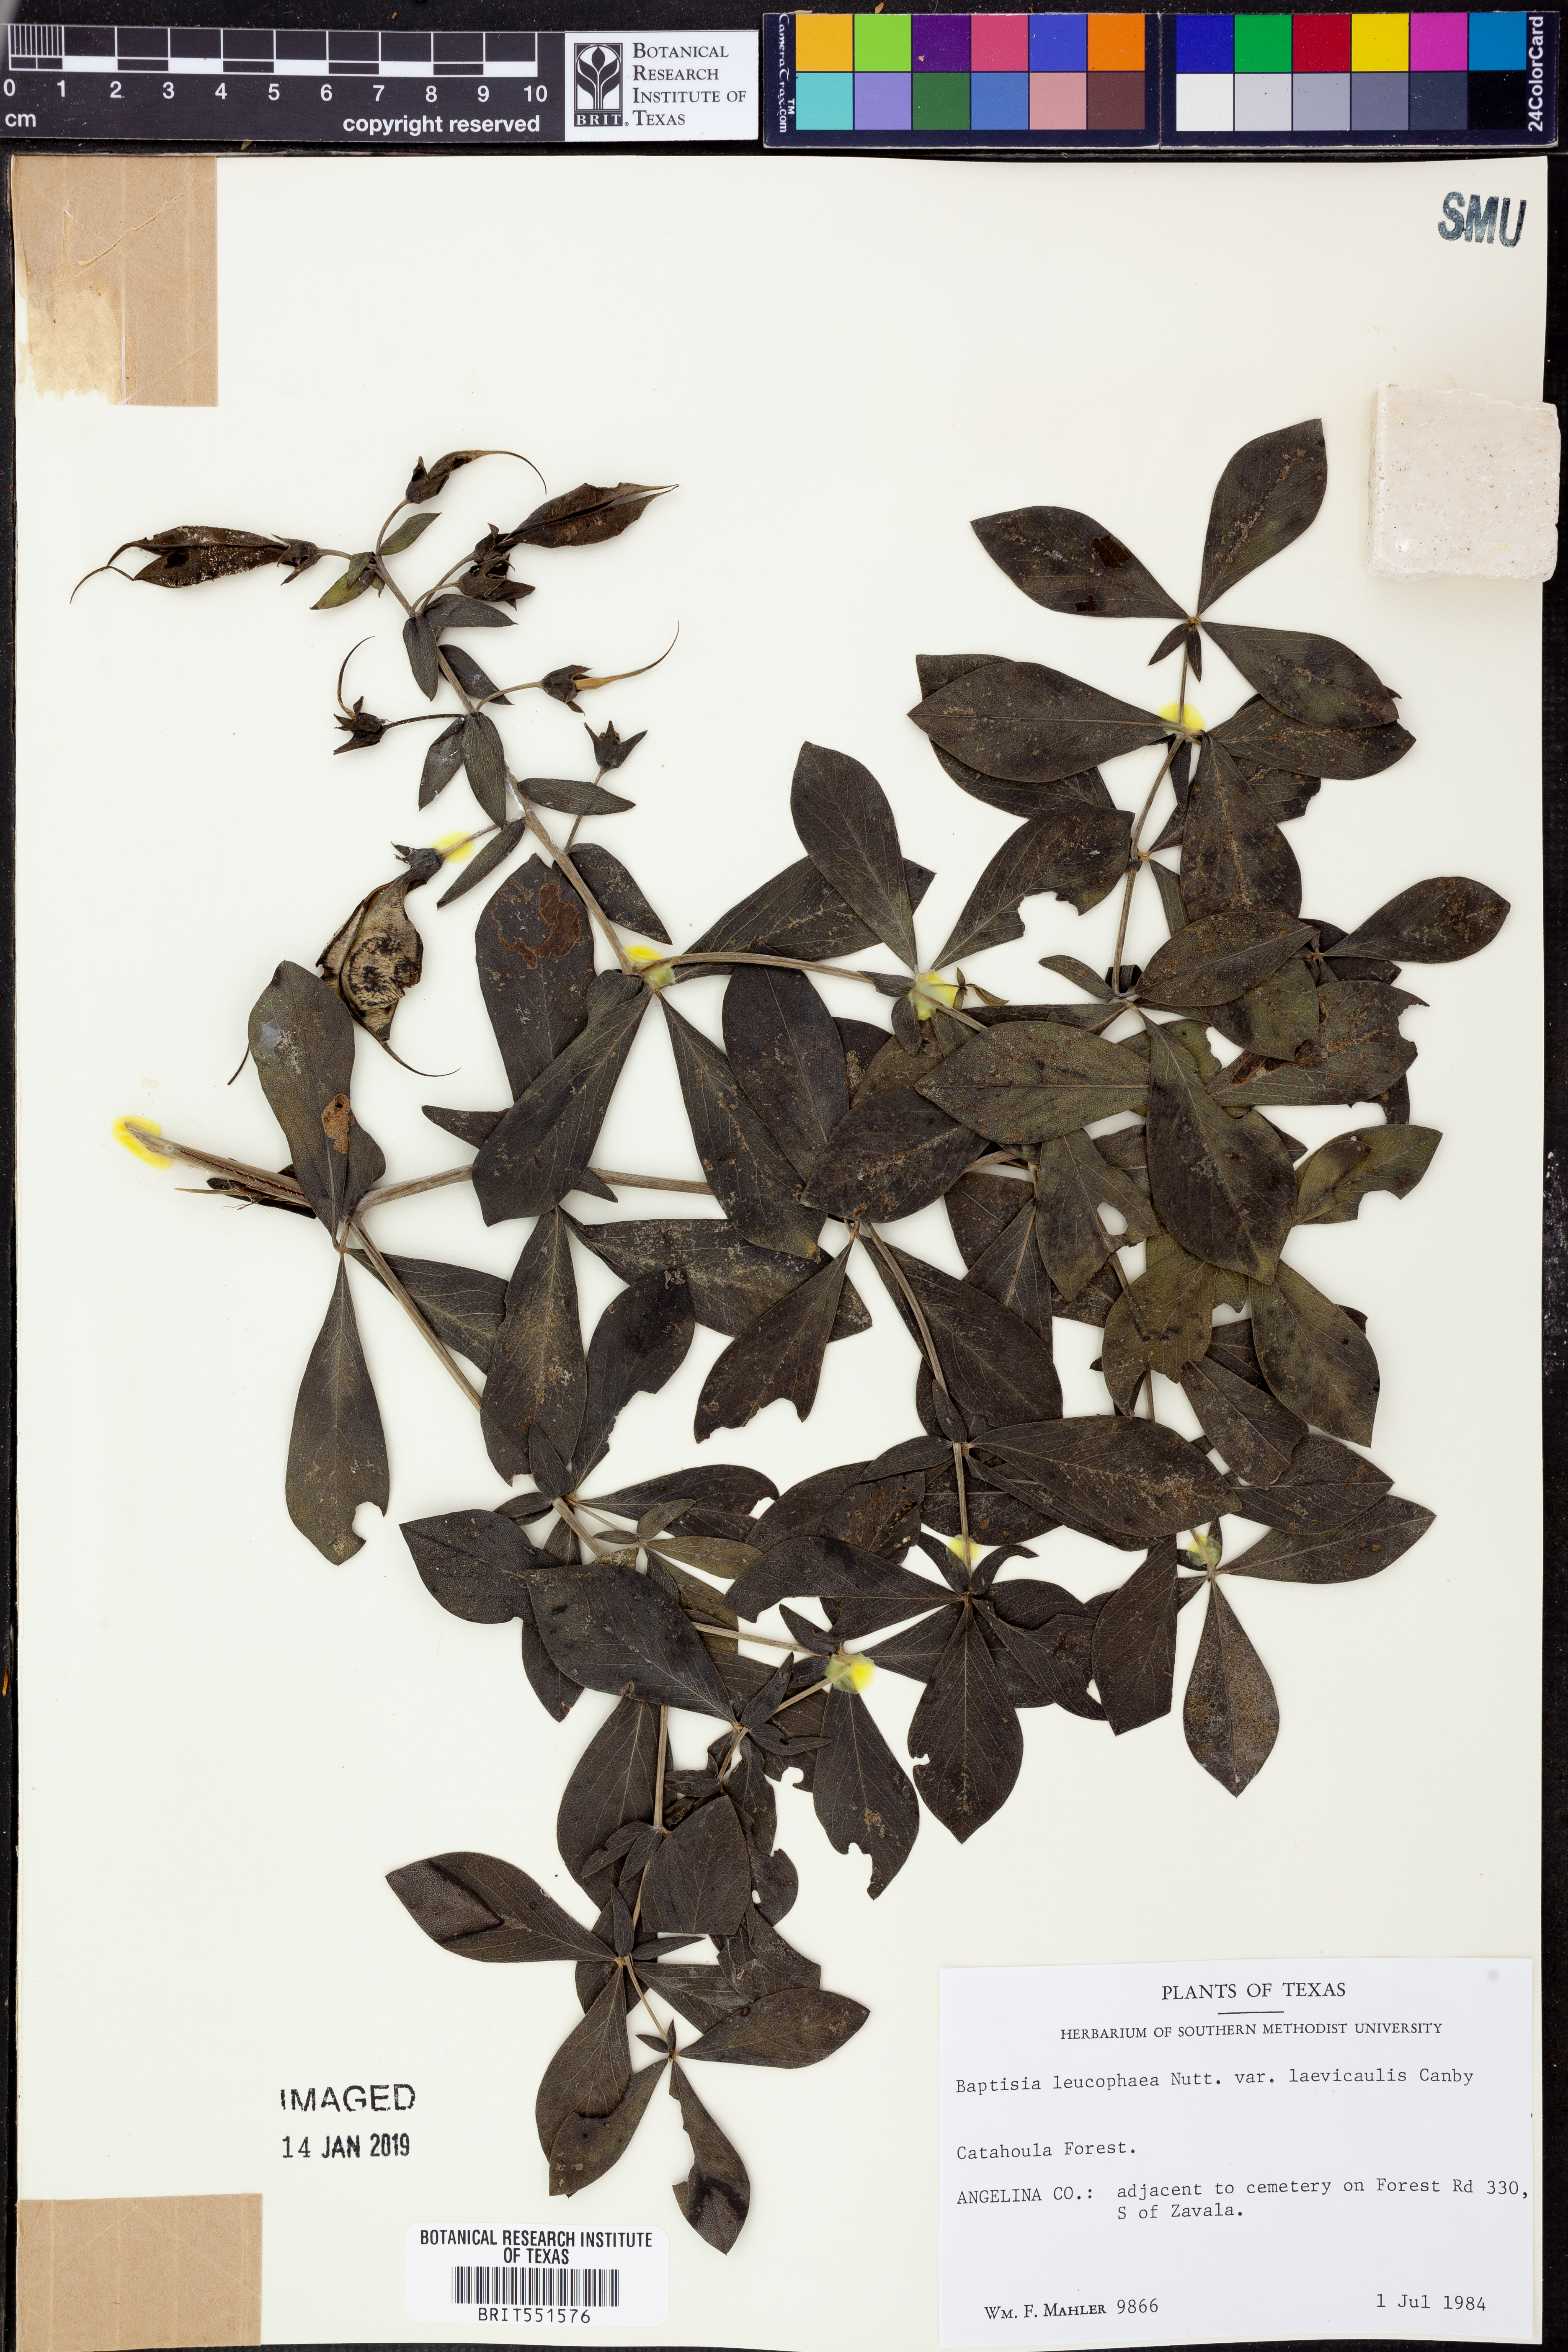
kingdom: Plantae
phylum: Tracheophyta
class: Magnoliopsida
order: Fabales
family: Fabaceae
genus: Baptisia
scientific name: Baptisia bracteata
